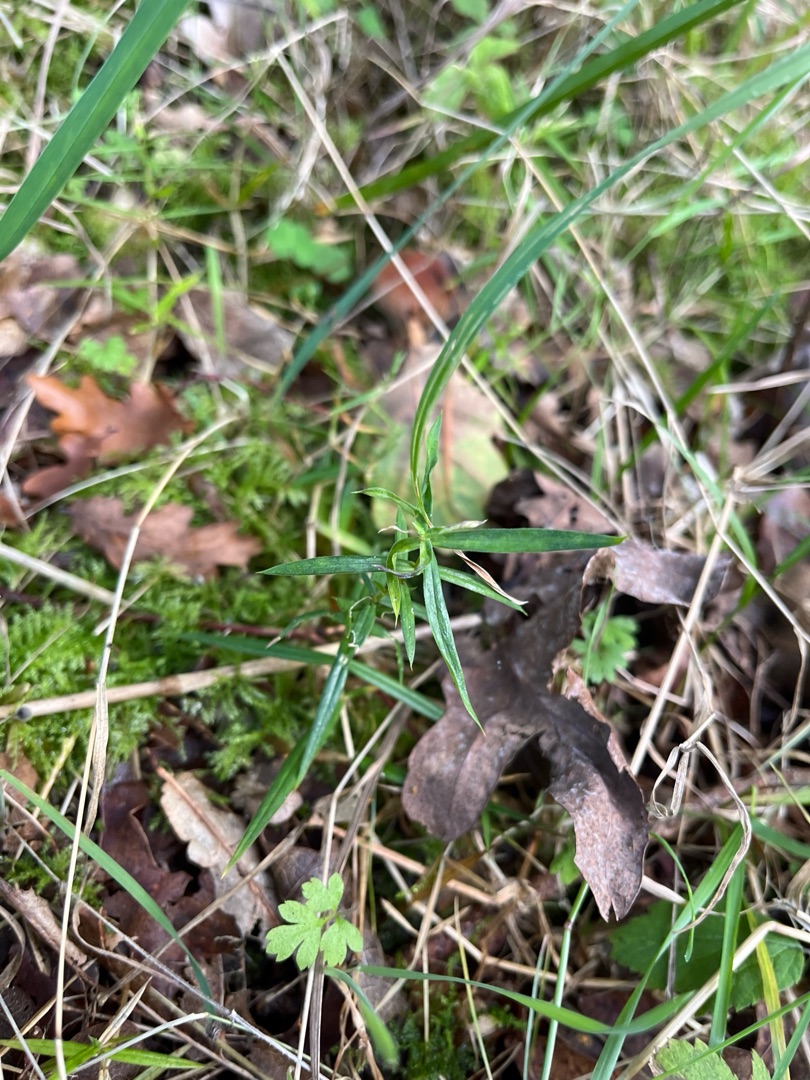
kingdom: Plantae
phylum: Tracheophyta
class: Magnoliopsida
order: Caryophyllales
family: Caryophyllaceae
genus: Rabelera
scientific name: Rabelera holostea
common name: Stor fladstjerne
